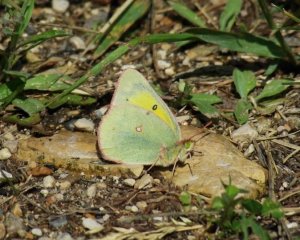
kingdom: Animalia
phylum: Arthropoda
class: Insecta
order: Lepidoptera
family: Pieridae
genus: Colias
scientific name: Colias philodice
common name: Clouded Sulphur
